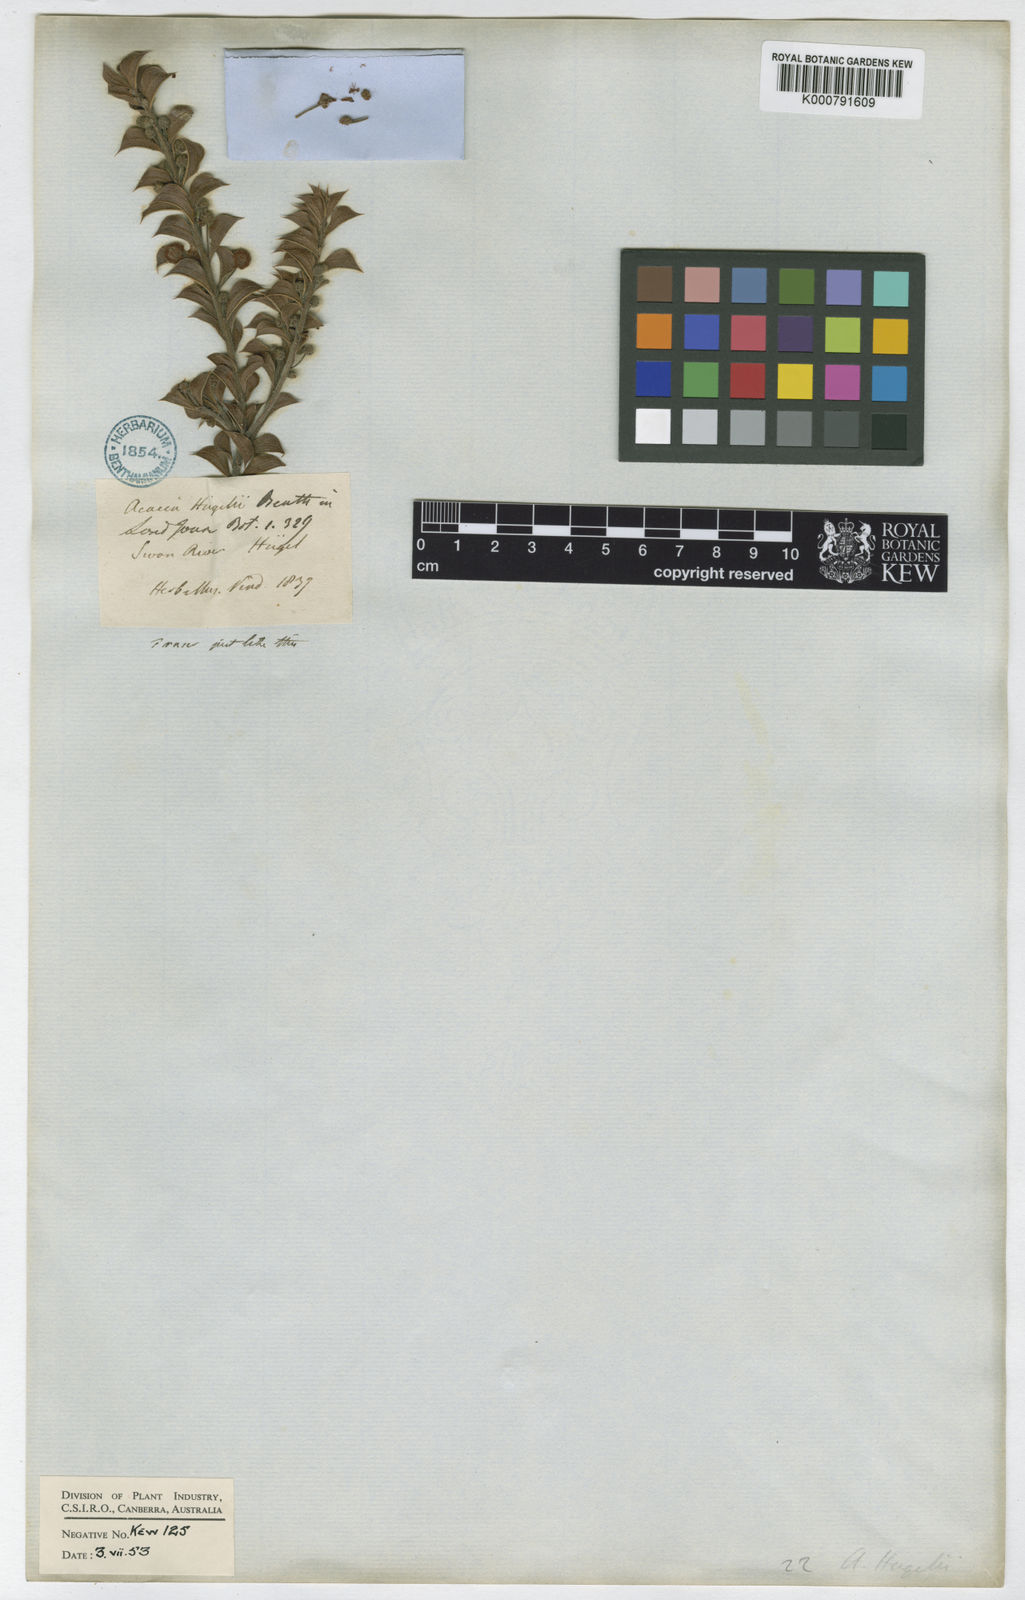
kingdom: Plantae
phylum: Tracheophyta
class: Magnoliopsida
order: Fabales
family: Fabaceae
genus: Acacia
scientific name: Acacia huegelii
